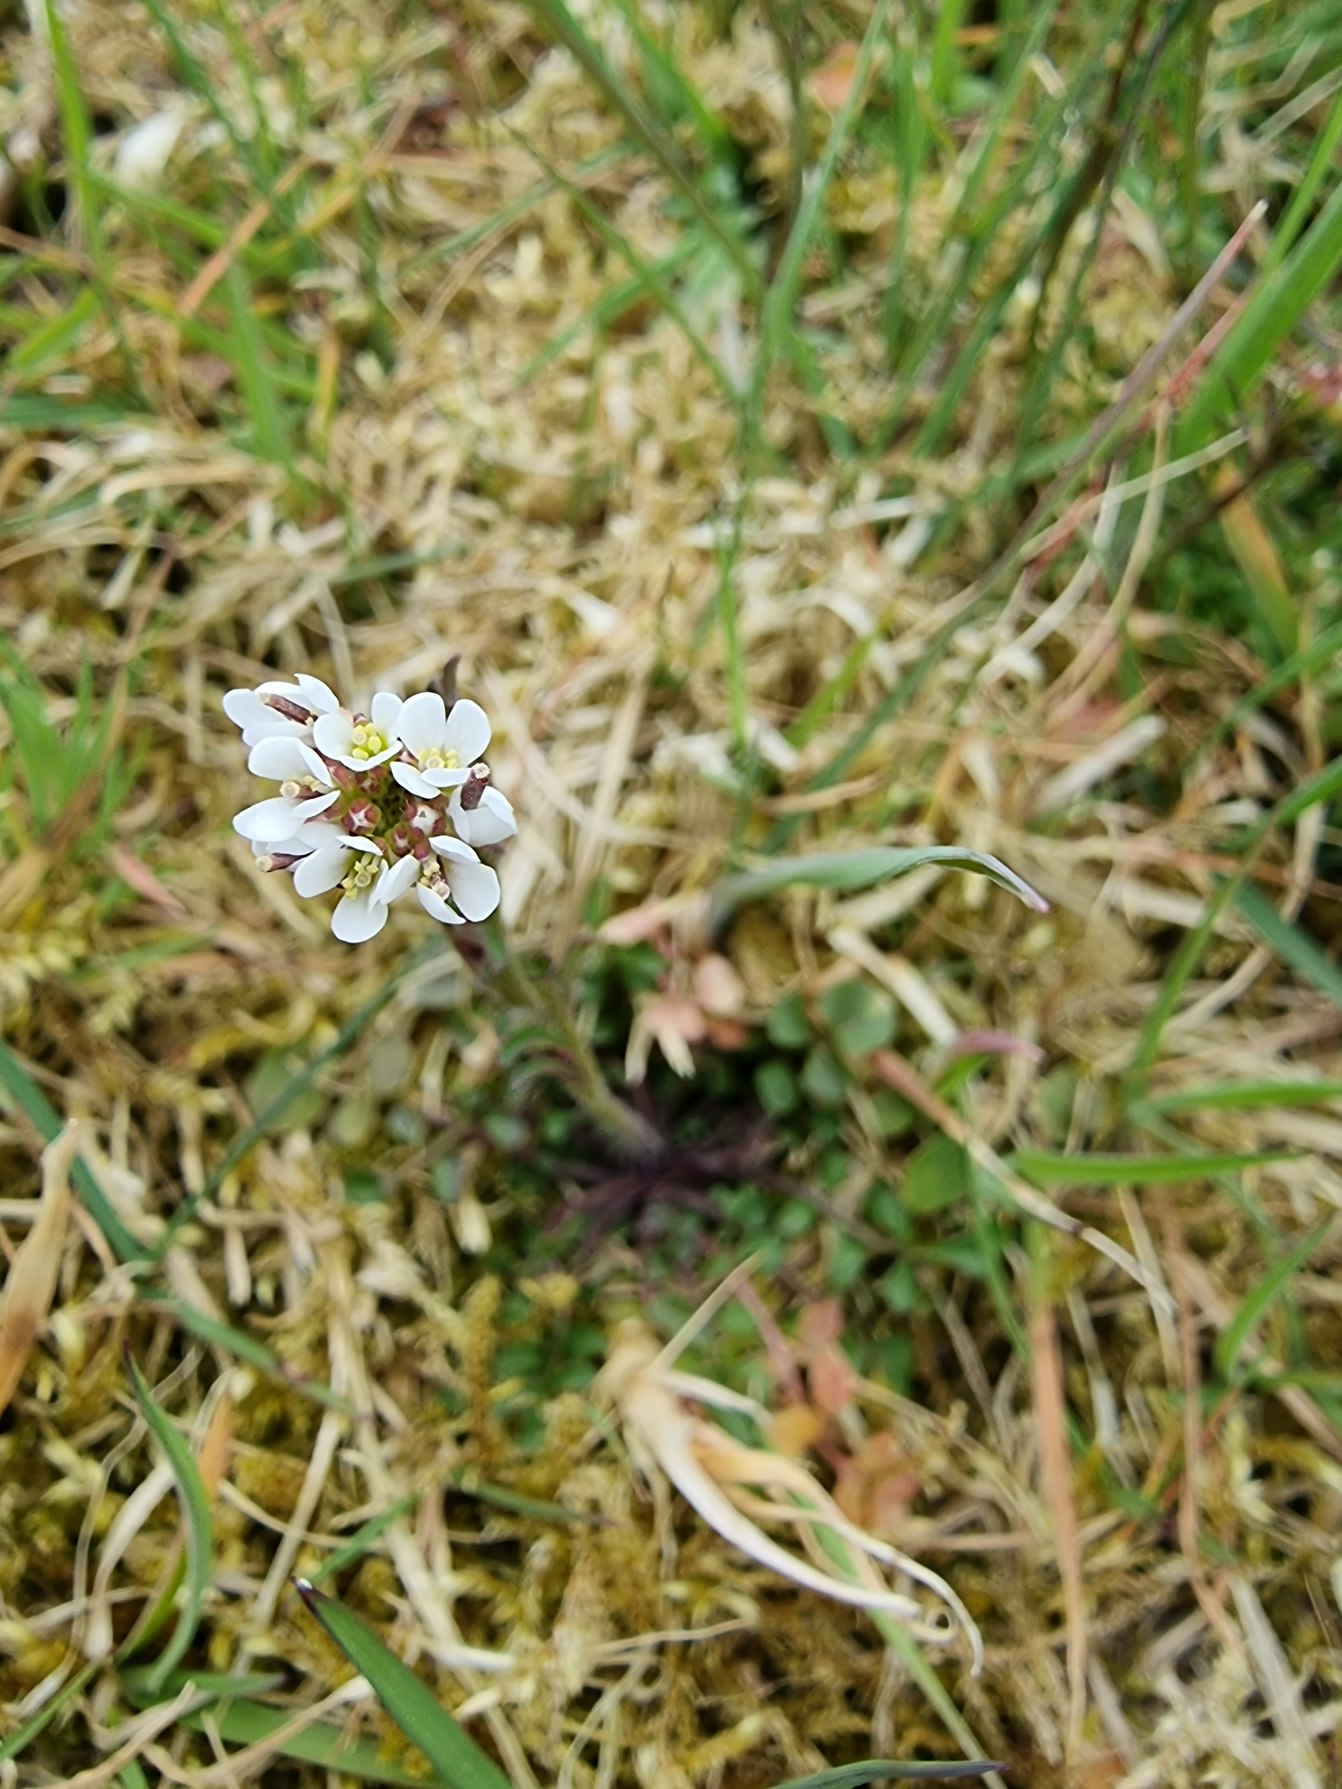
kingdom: Plantae
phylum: Tracheophyta
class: Magnoliopsida
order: Brassicales
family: Brassicaceae
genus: Cardamine
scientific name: Cardamine pratensis
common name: Engkarse
